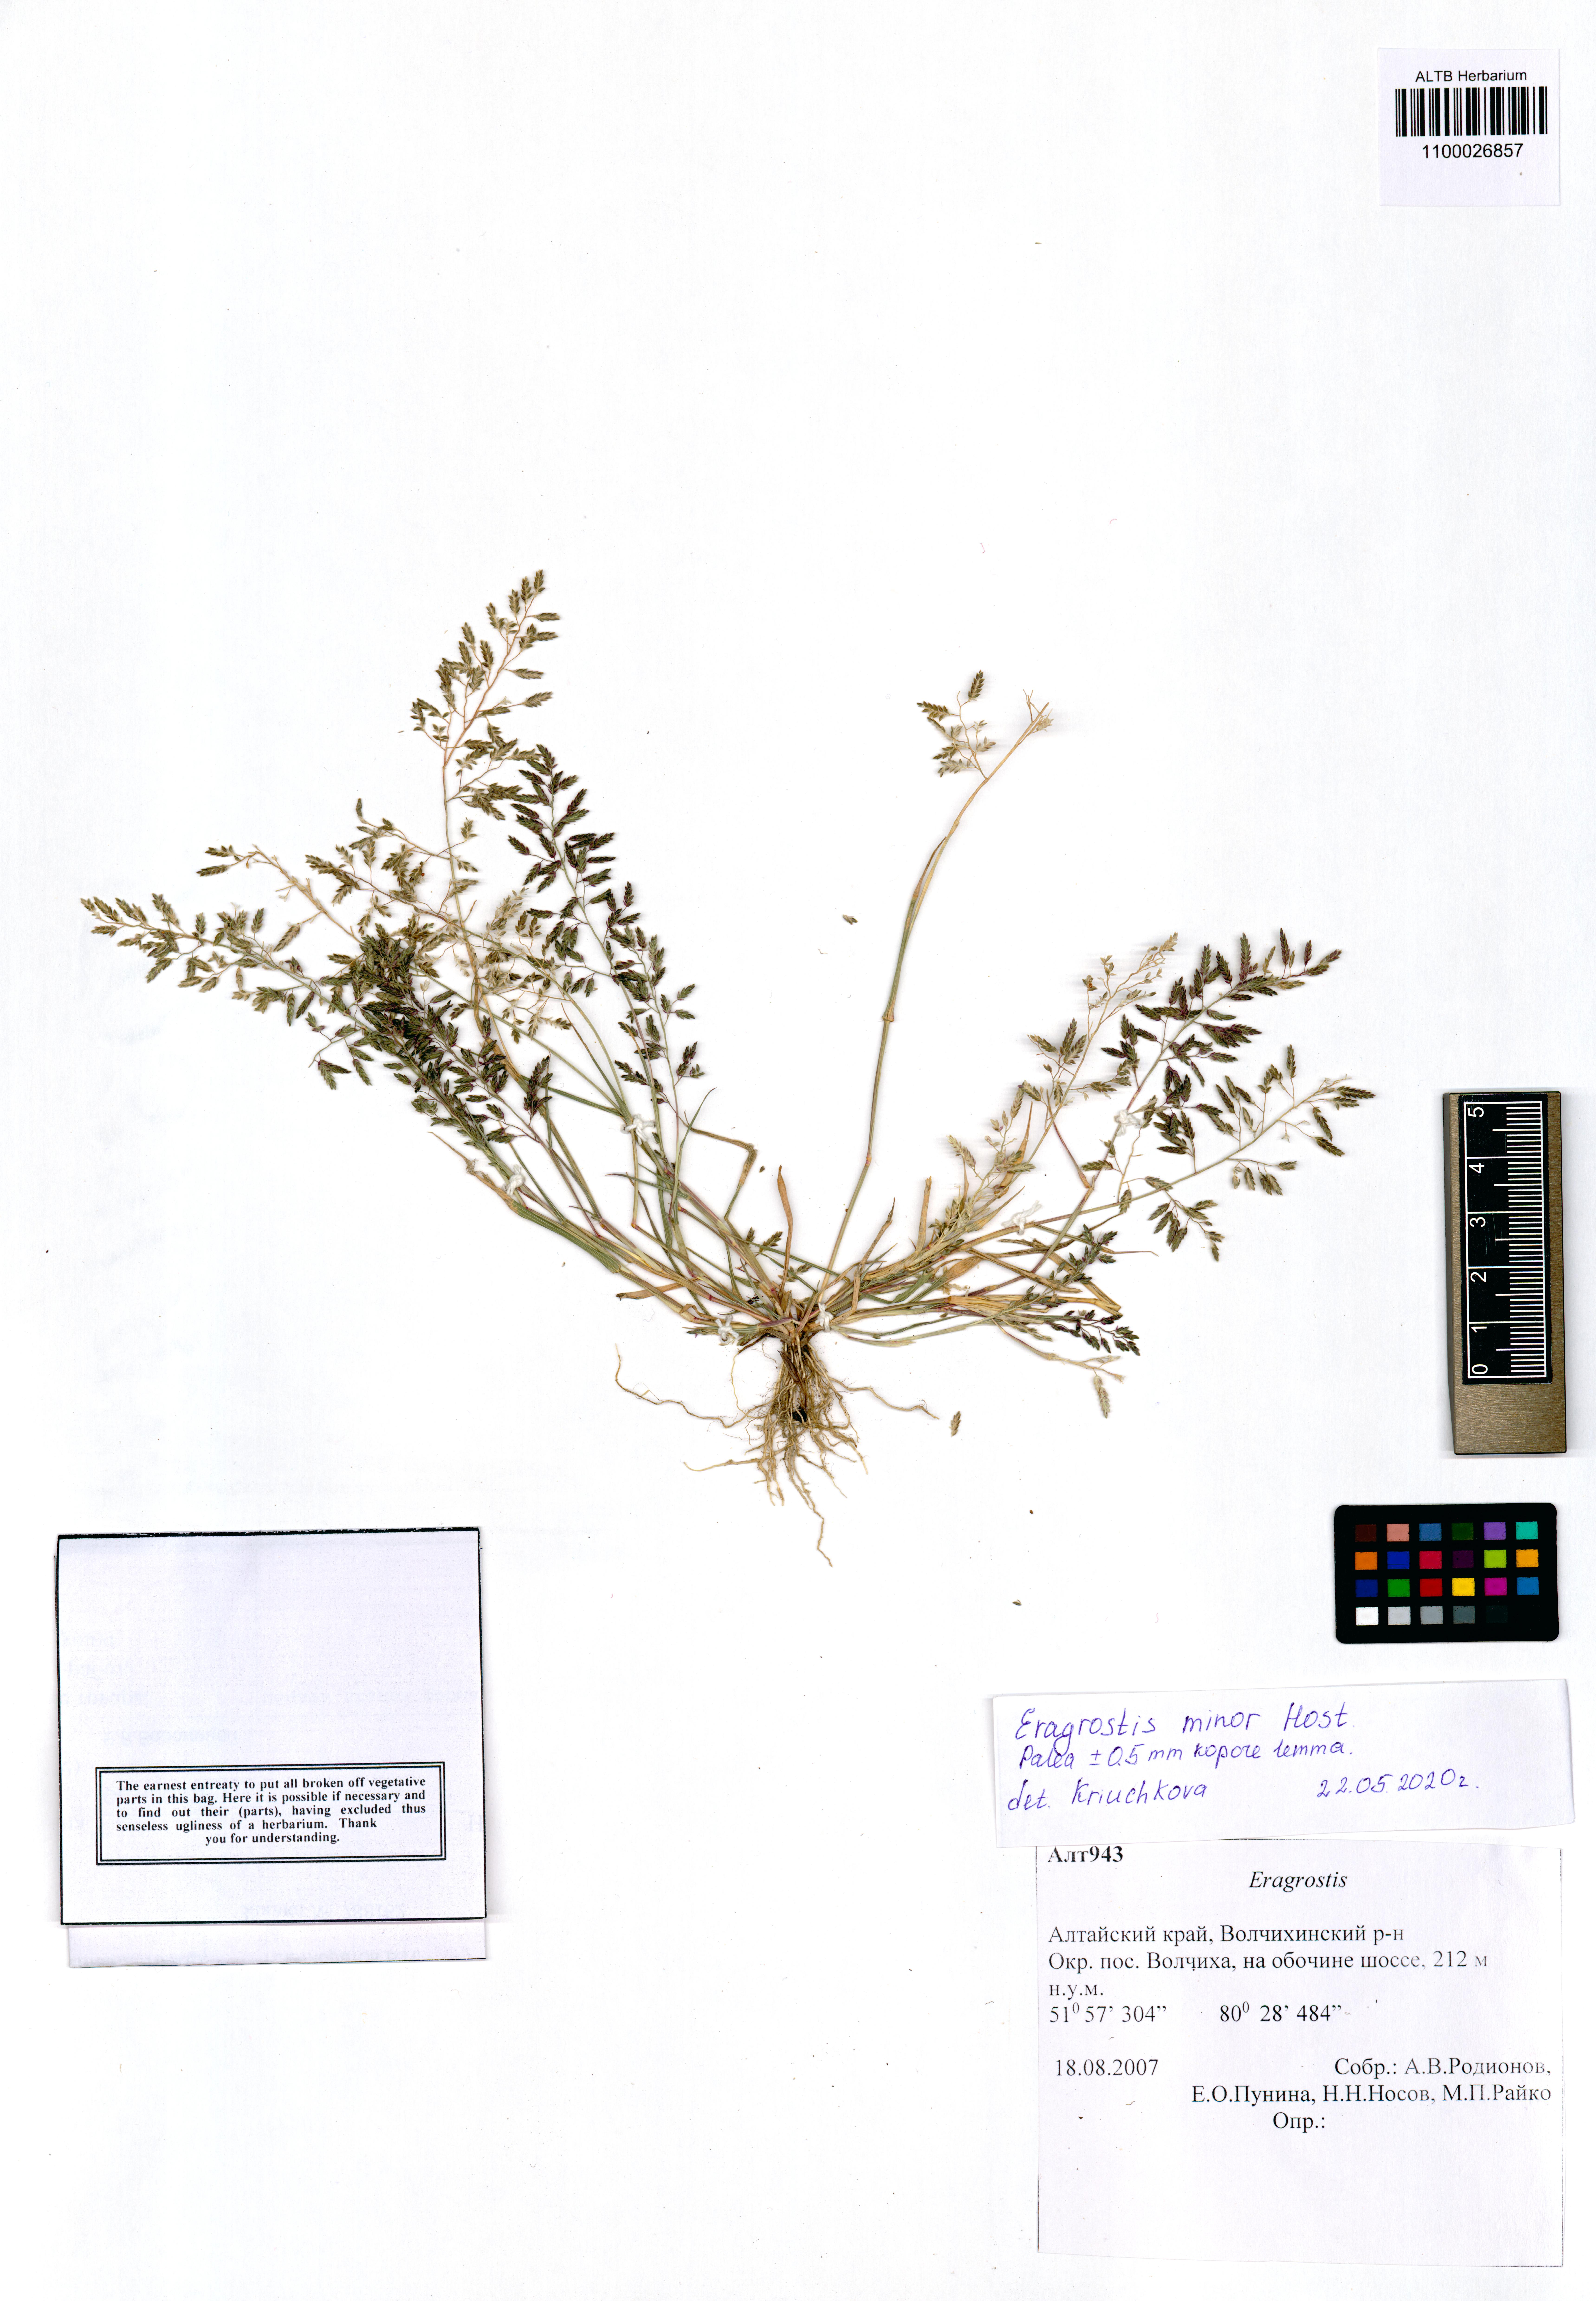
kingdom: Plantae
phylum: Tracheophyta
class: Liliopsida
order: Poales
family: Poaceae
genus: Eragrostis
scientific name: Eragrostis minor
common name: Small love-grass
